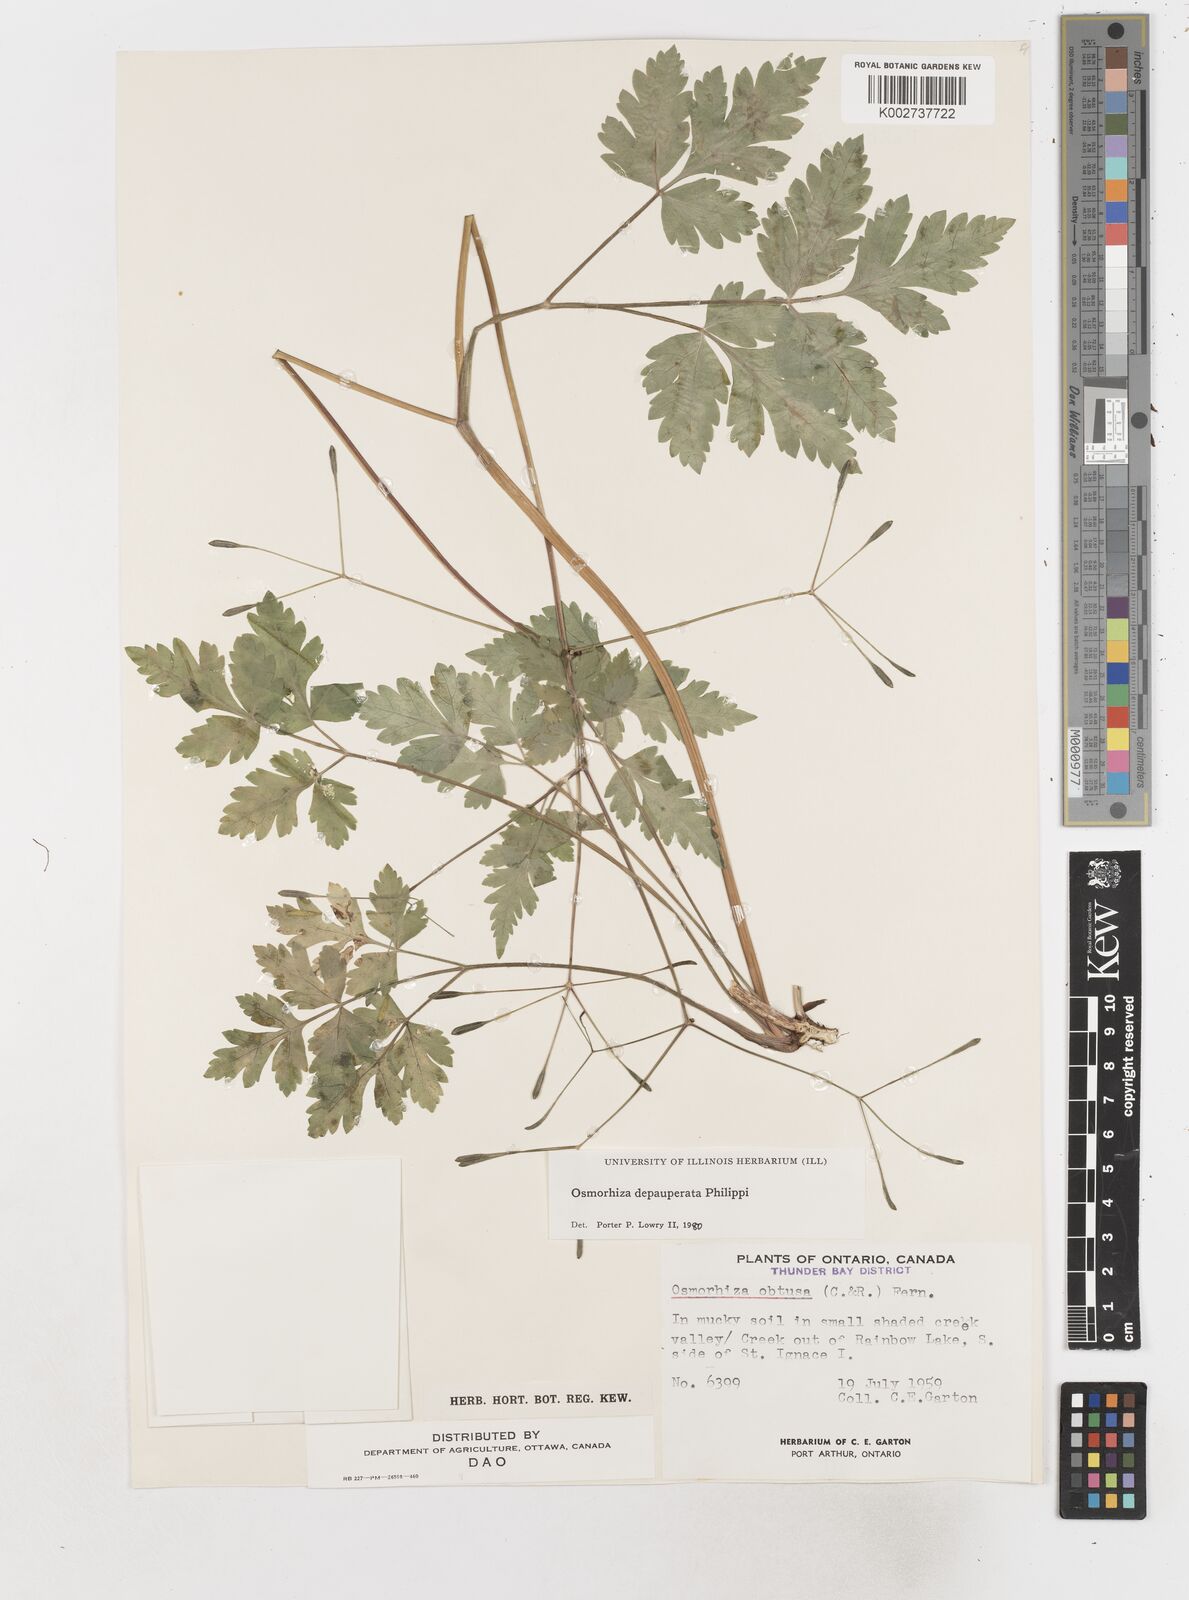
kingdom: Plantae
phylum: Tracheophyta
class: Magnoliopsida
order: Apiales
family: Apiaceae
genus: Osmorhiza
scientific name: Osmorhiza depauperata
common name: Blunt sweet cicely
